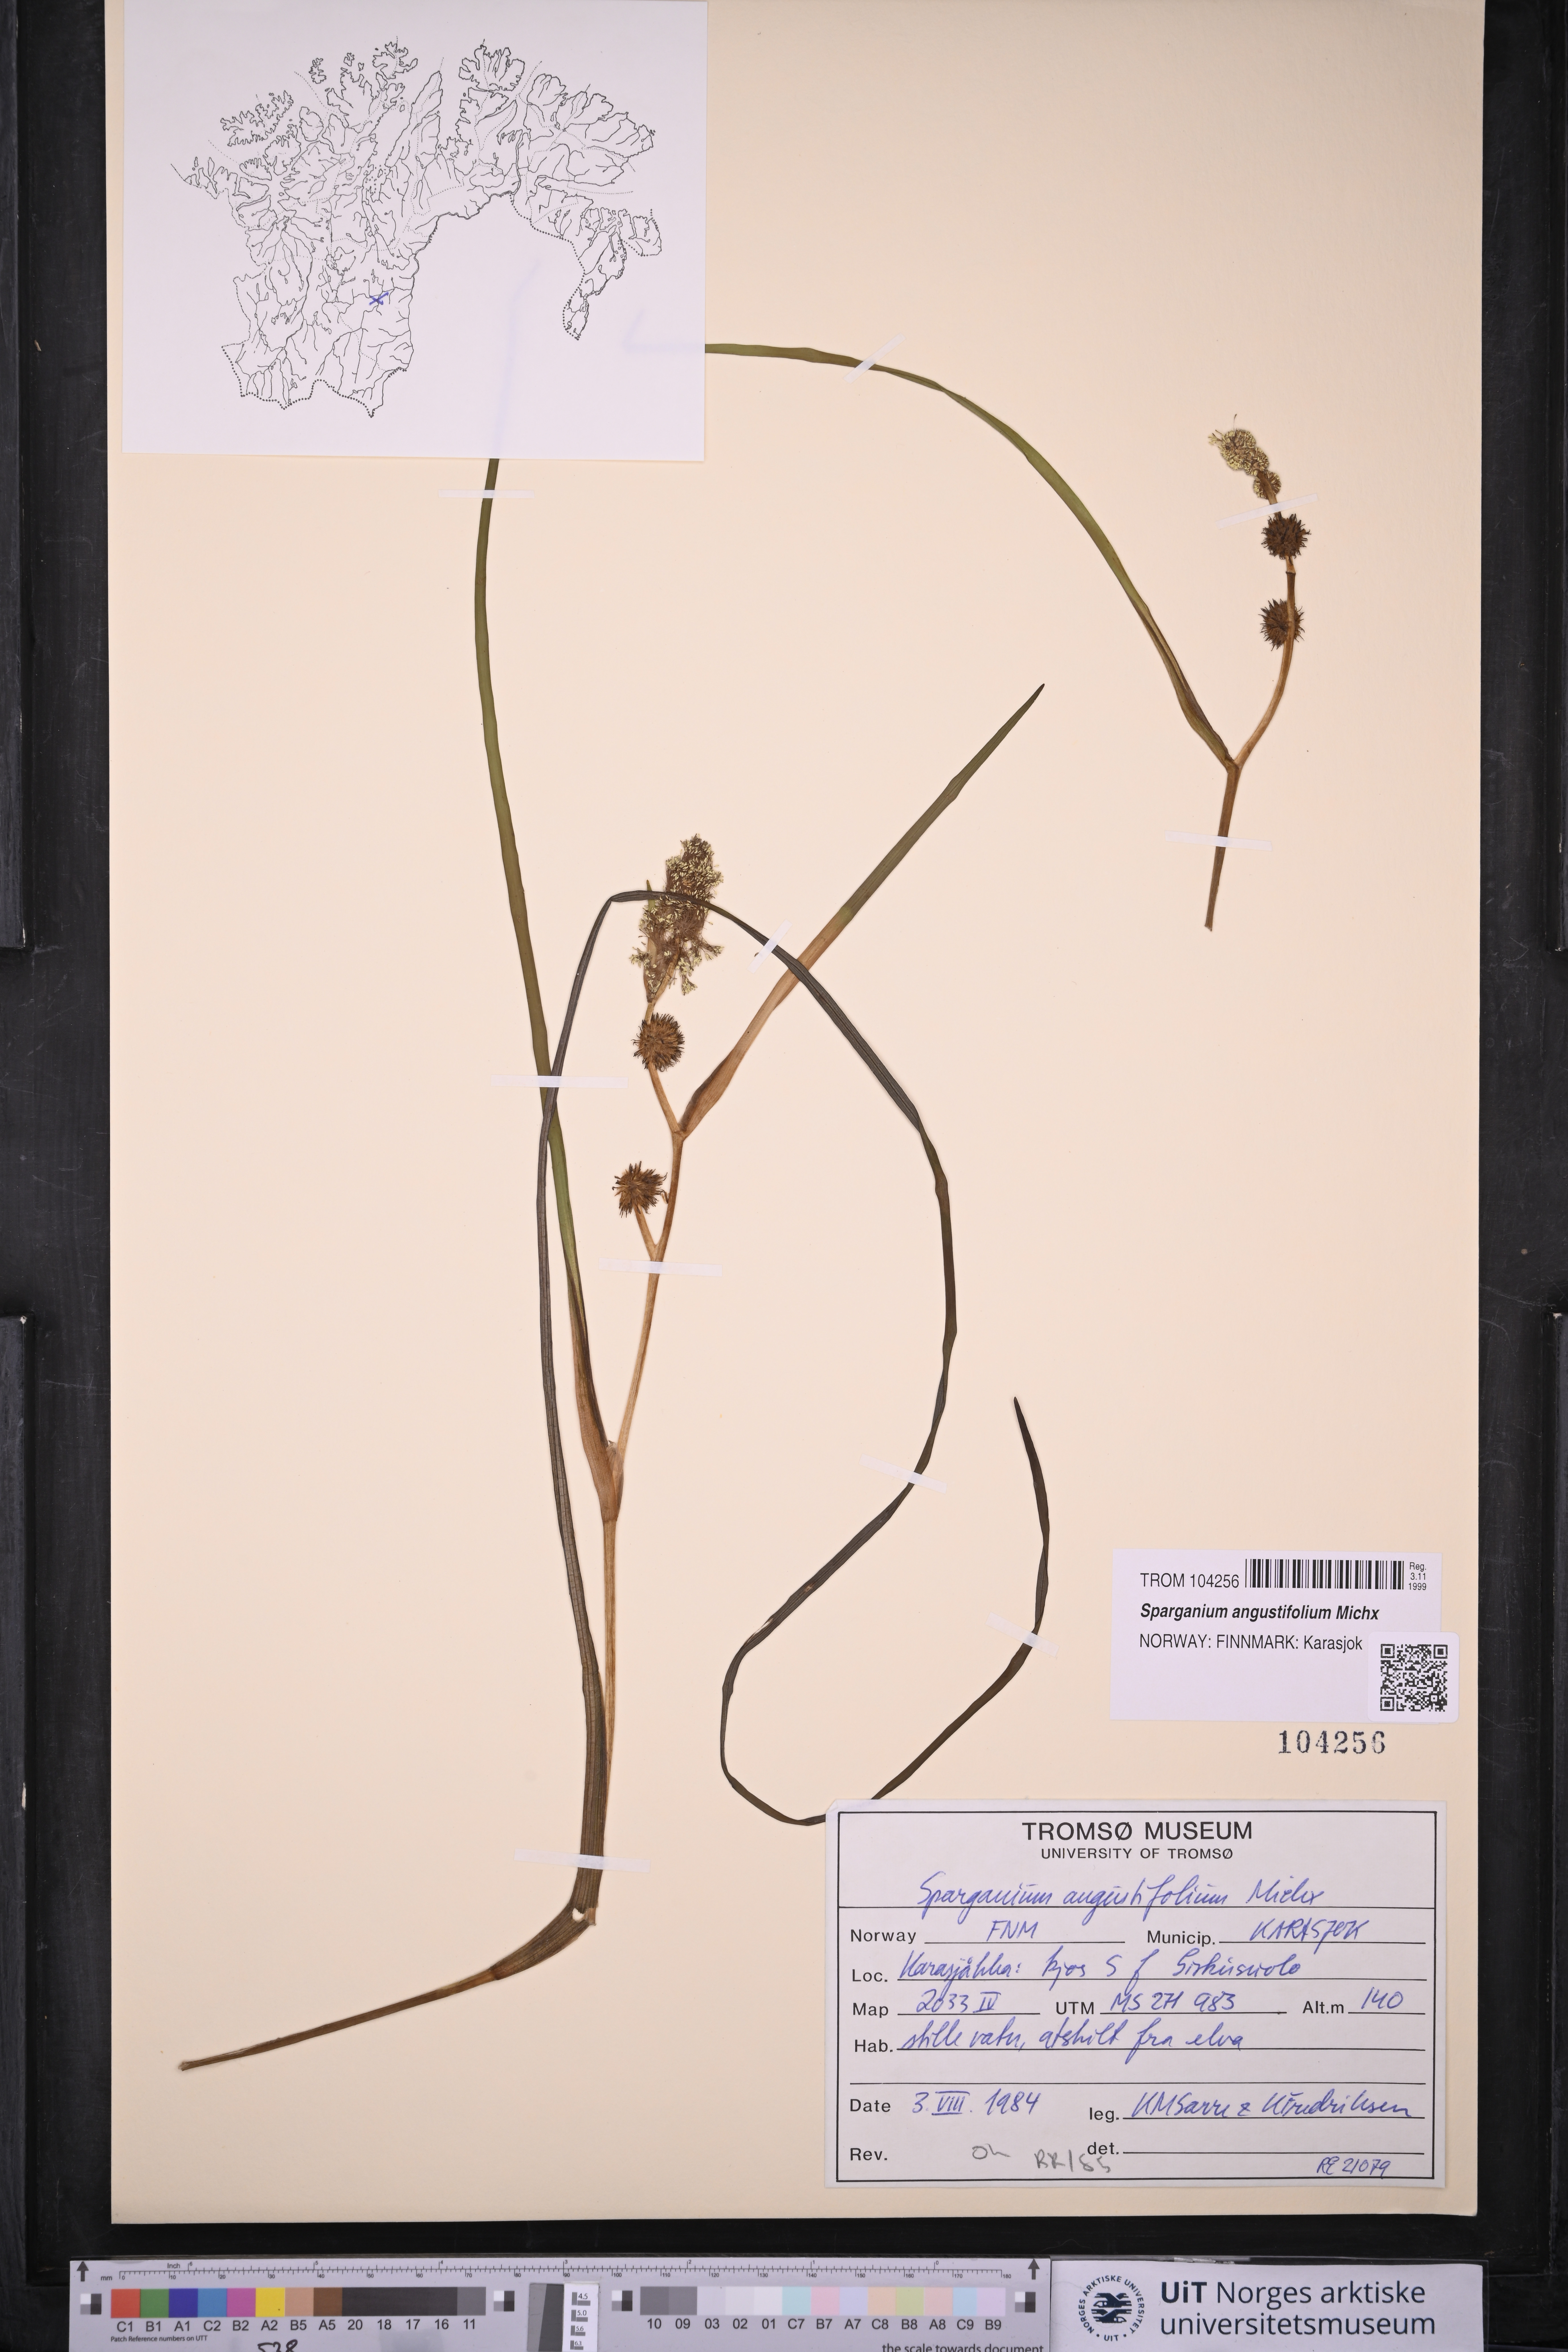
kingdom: Plantae
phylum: Tracheophyta
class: Liliopsida
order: Poales
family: Typhaceae
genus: Sparganium
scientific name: Sparganium angustifolium
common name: Floating bur-reed
